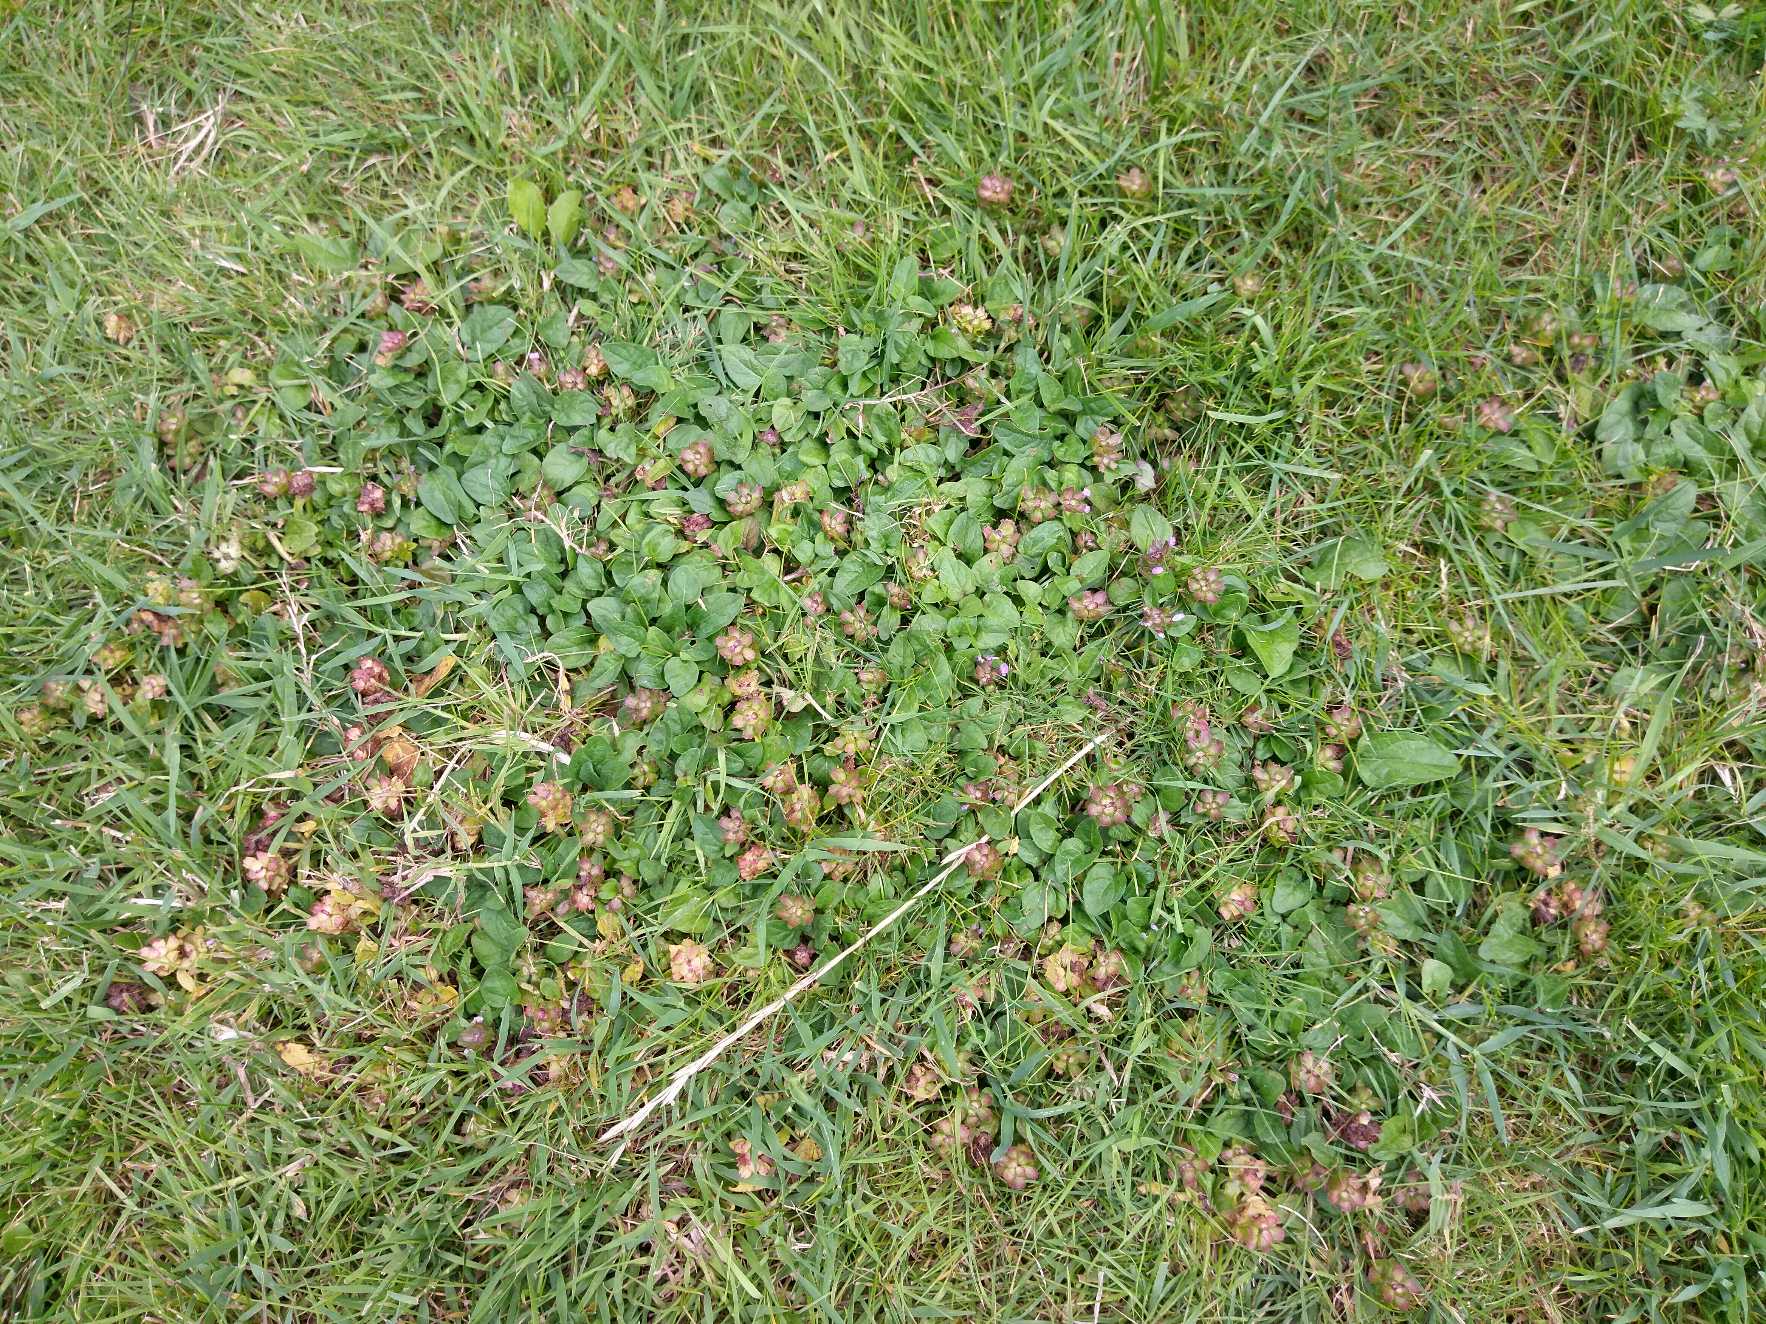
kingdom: Plantae
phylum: Tracheophyta
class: Magnoliopsida
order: Lamiales
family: Lamiaceae
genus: Prunella
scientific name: Prunella vulgaris
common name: Almindelig brunelle
